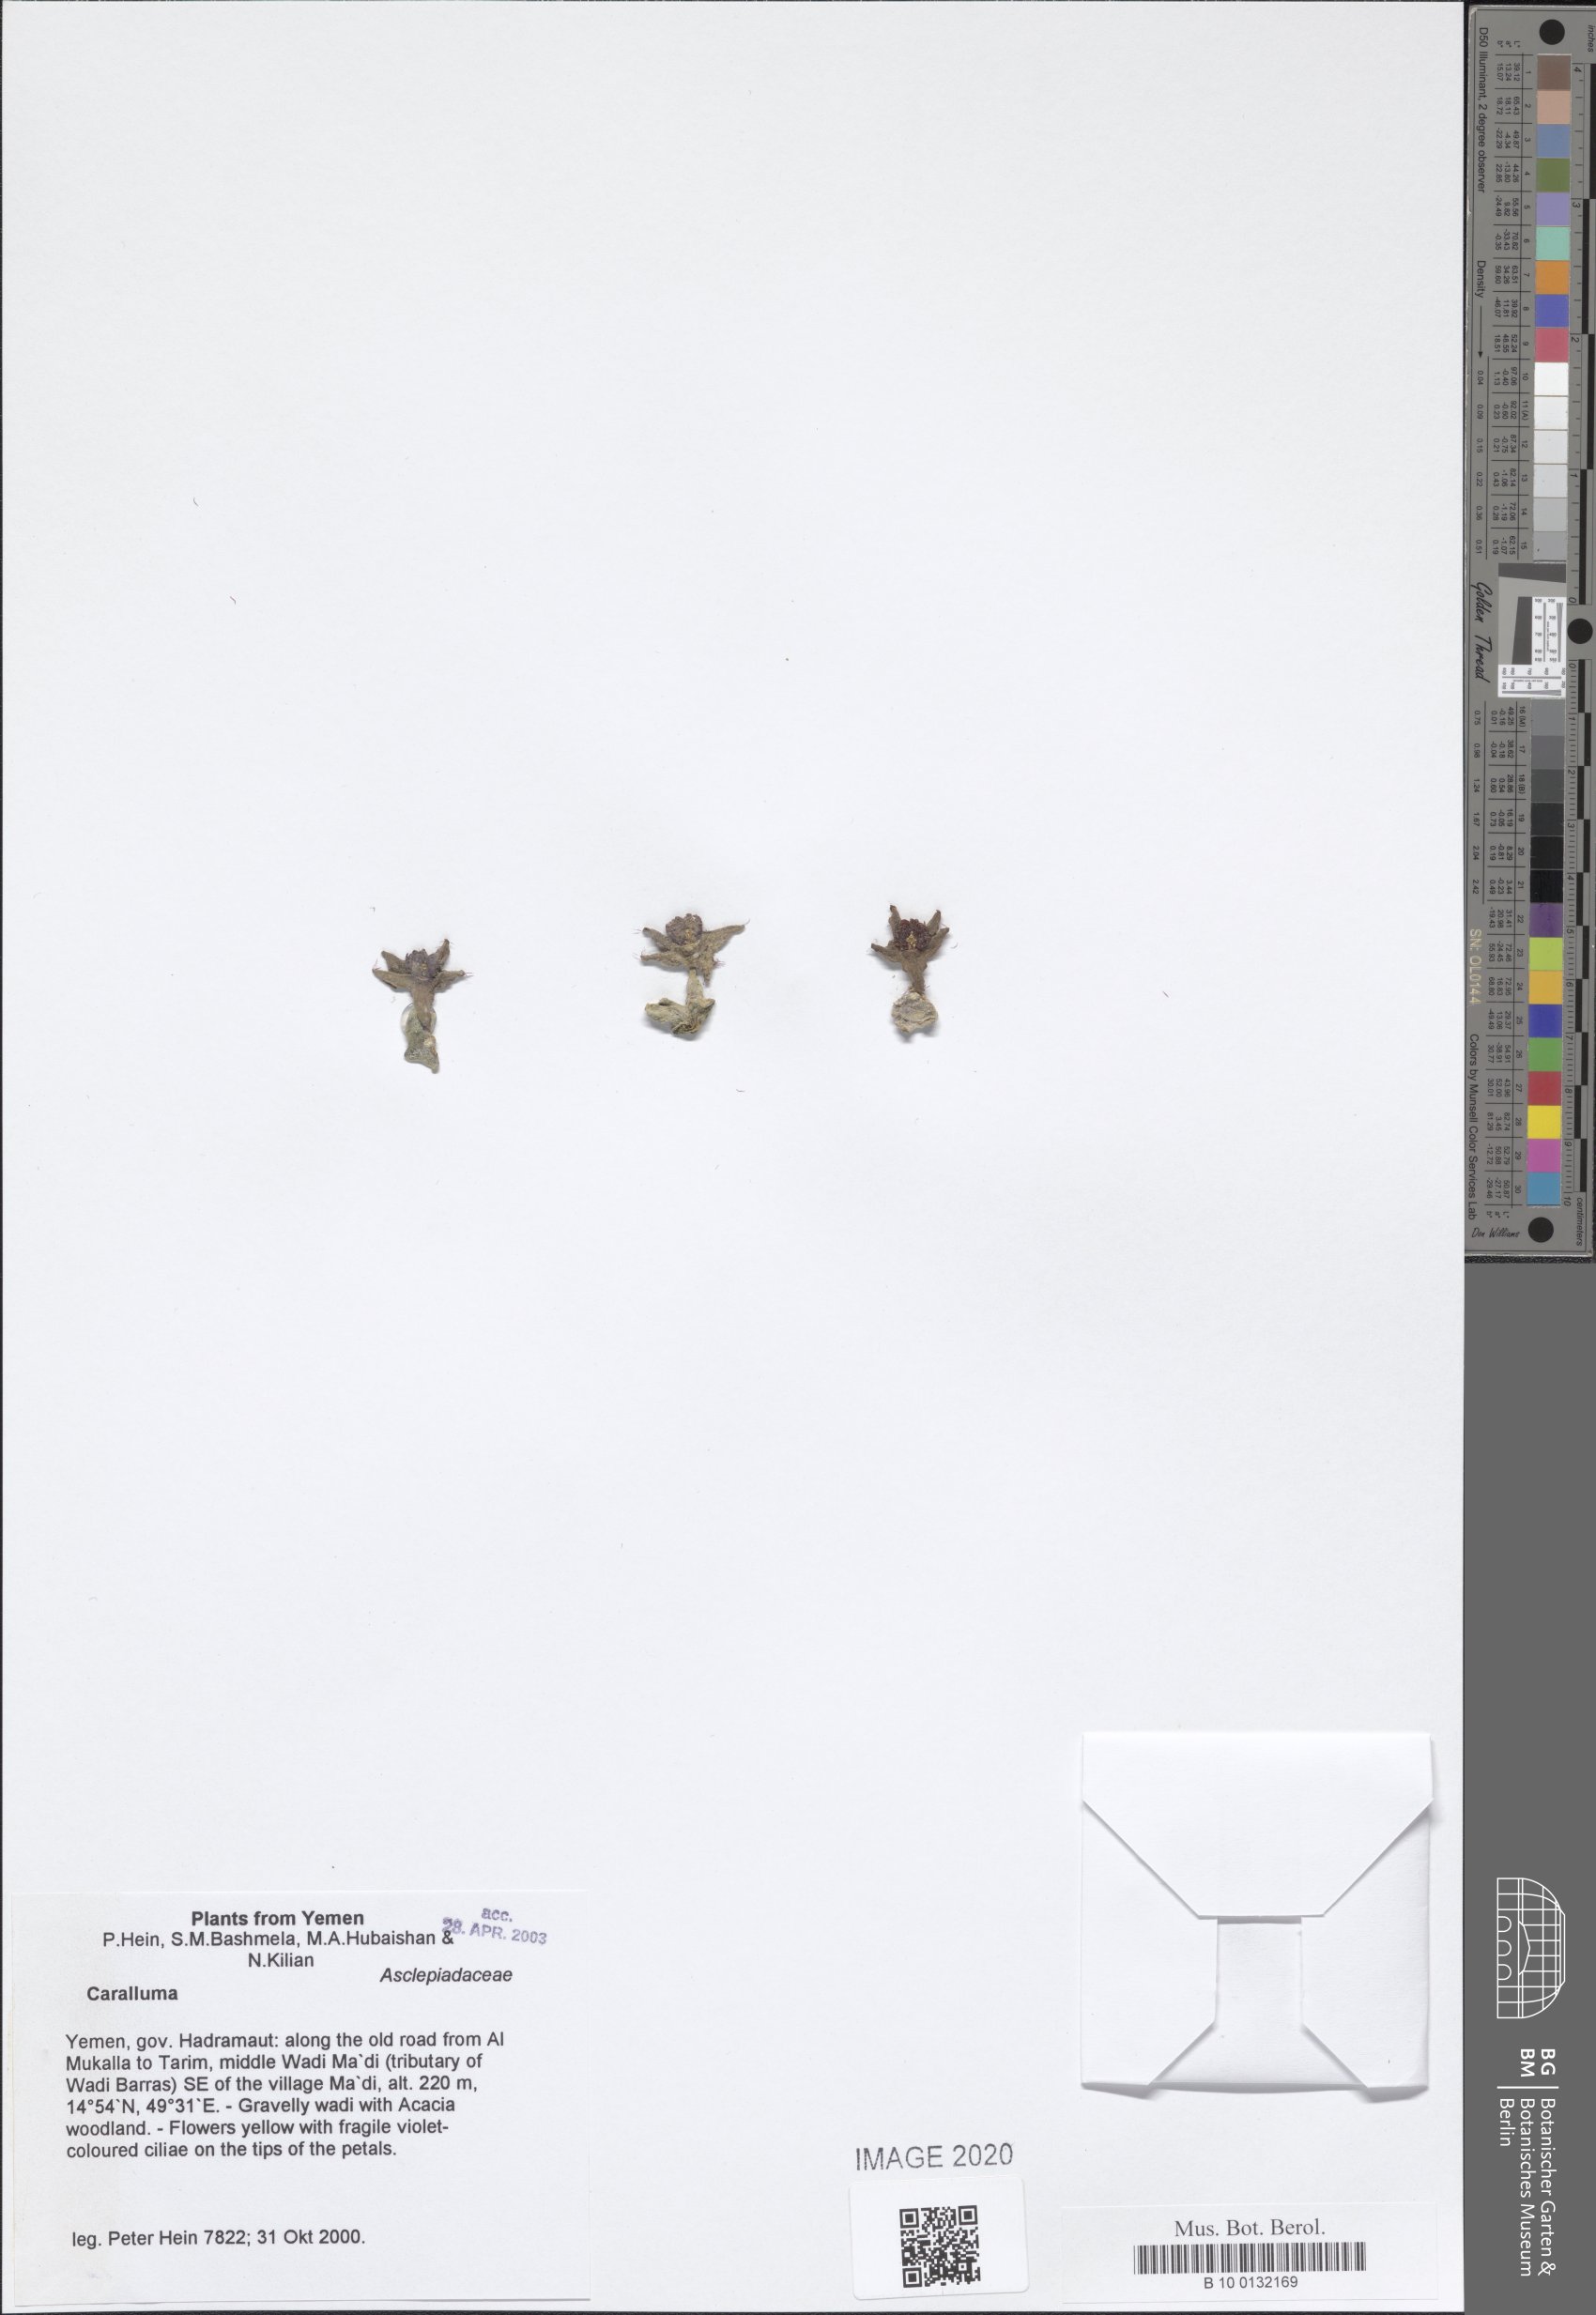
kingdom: Plantae
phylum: Tracheophyta
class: Magnoliopsida
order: Gentianales
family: Apocynaceae
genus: Ceropegia
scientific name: Ceropegia dolichocarpa
